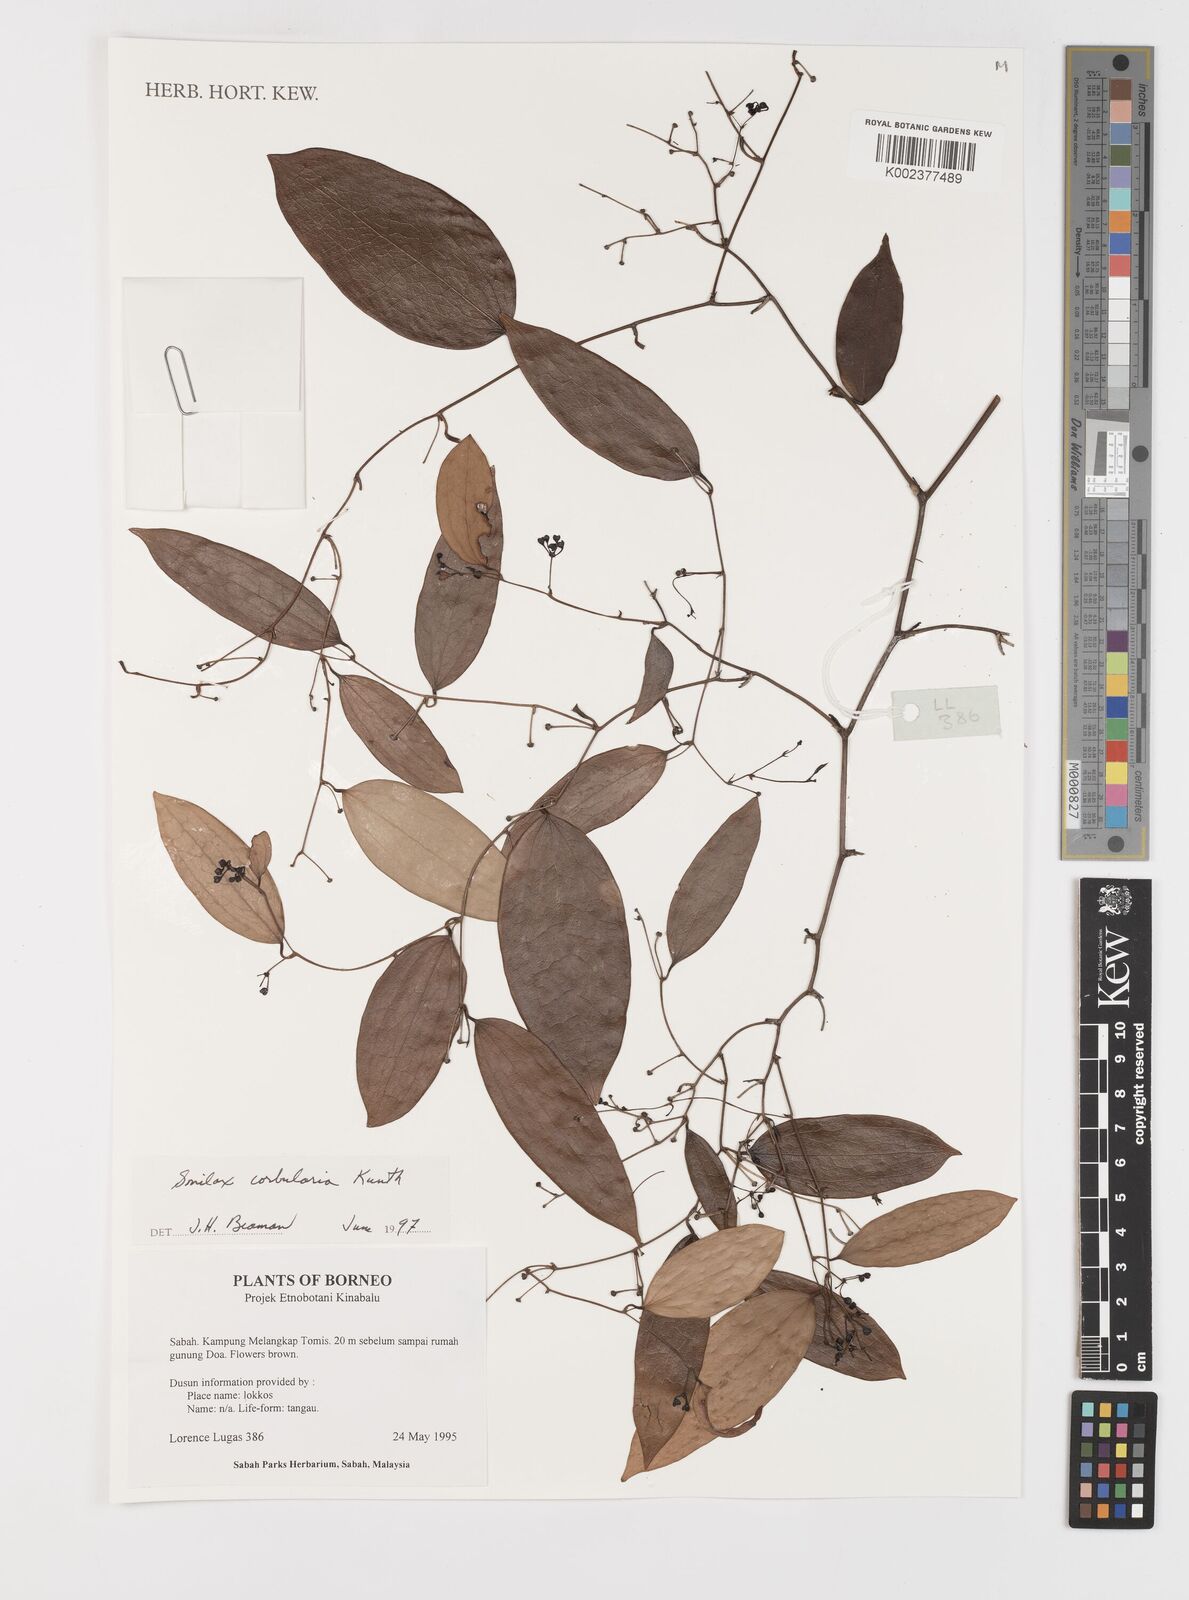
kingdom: Plantae
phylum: Tracheophyta
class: Liliopsida
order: Liliales
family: Smilacaceae
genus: Smilax
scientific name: Smilax corbularia
